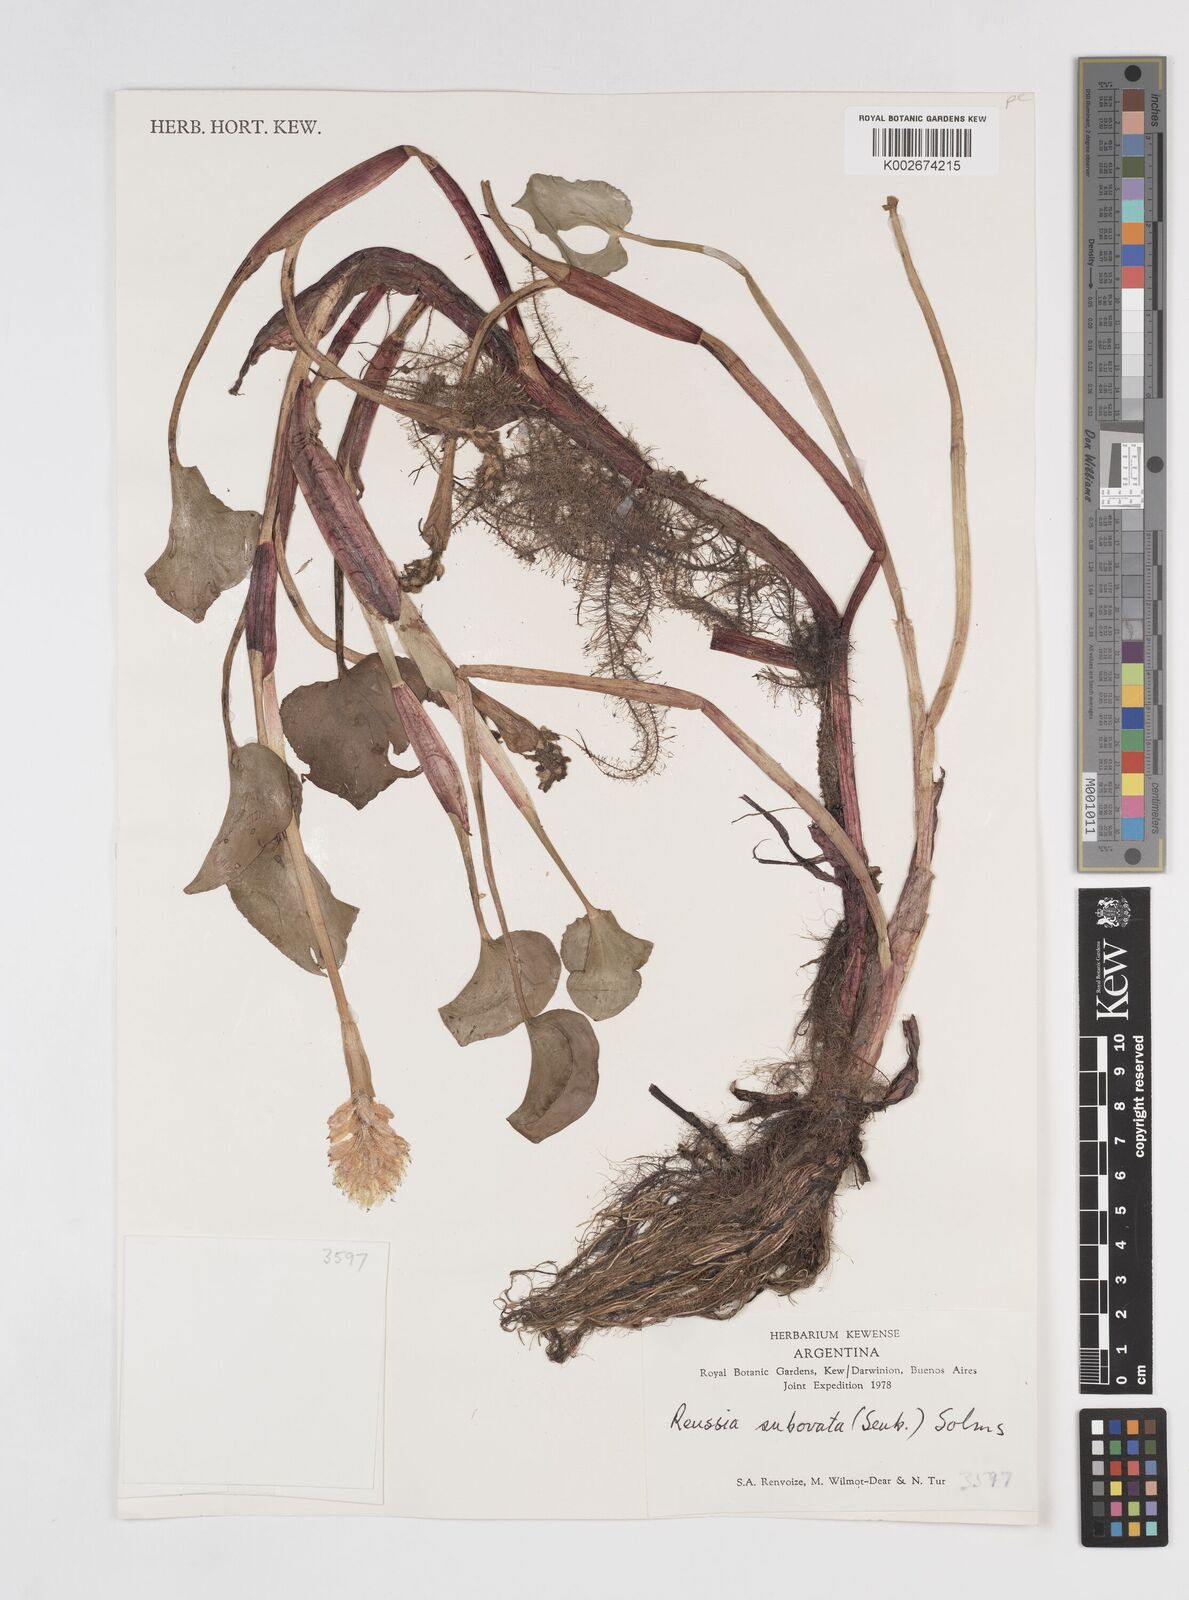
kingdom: Plantae
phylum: Tracheophyta
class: Liliopsida
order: Commelinales
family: Pontederiaceae
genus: Pontederia
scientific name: Pontederia subovata
